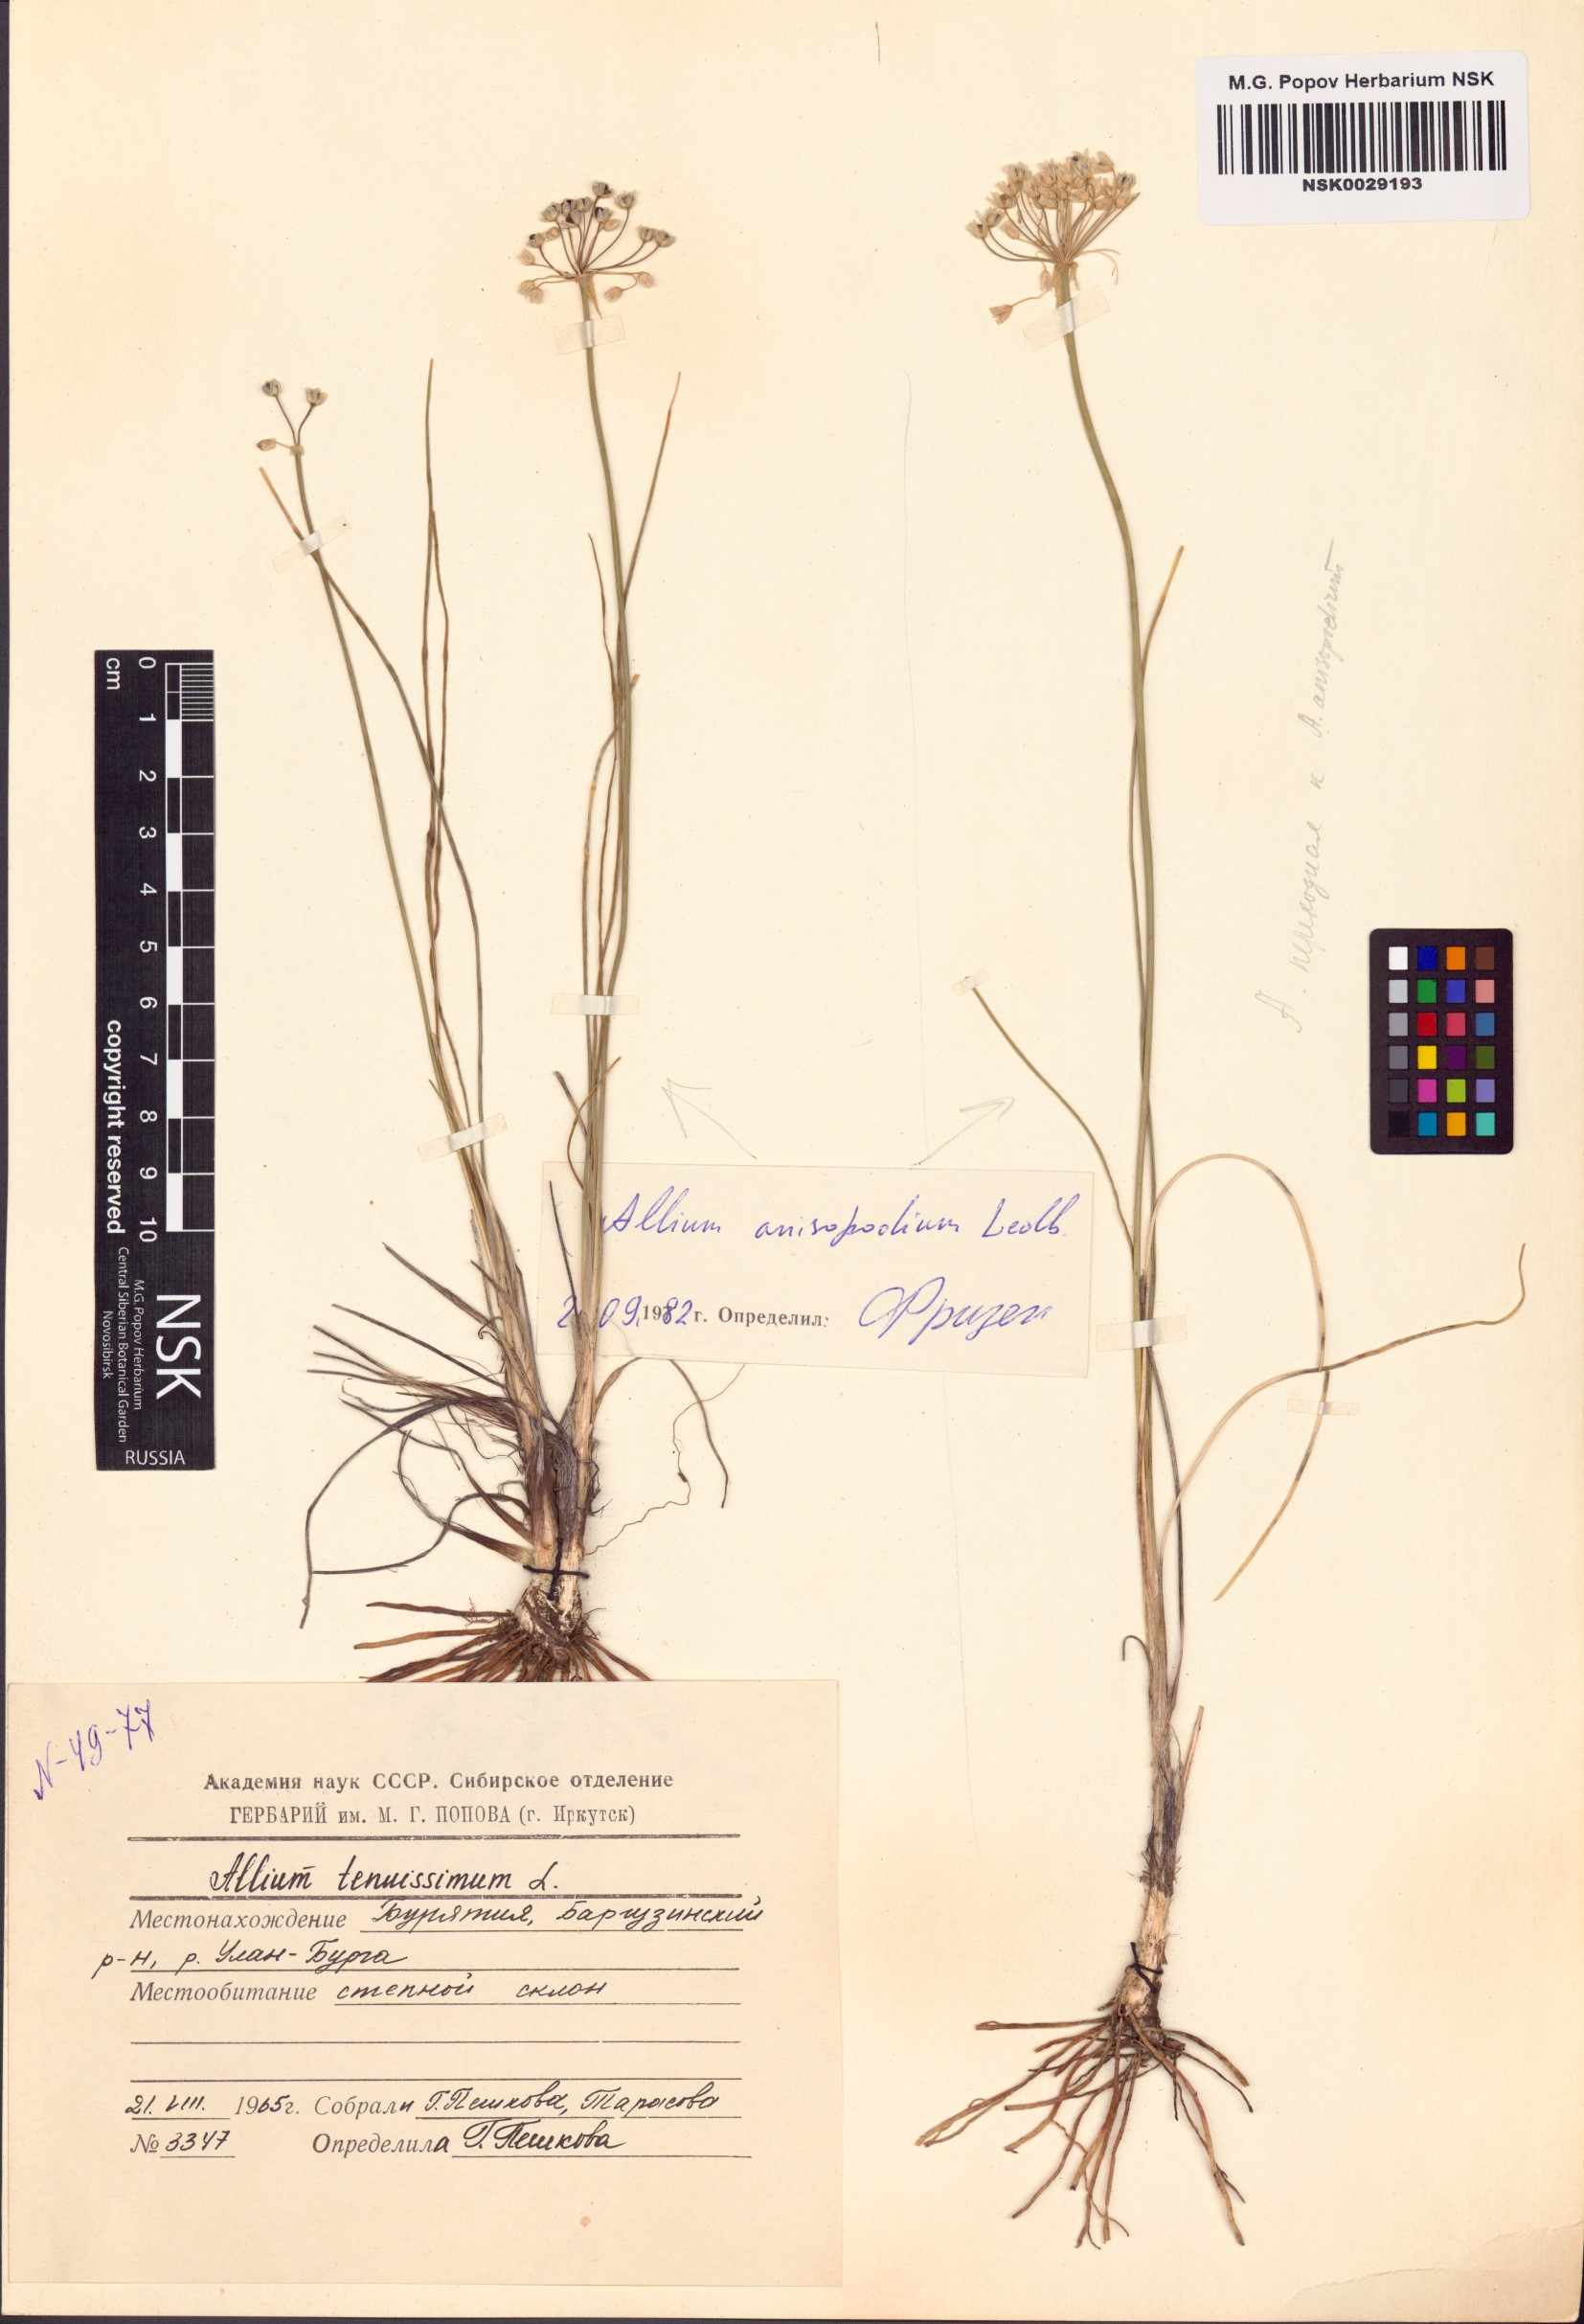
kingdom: Plantae
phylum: Tracheophyta
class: Liliopsida
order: Asparagales
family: Amaryllidaceae
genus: Allium
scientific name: Allium anisopodium
